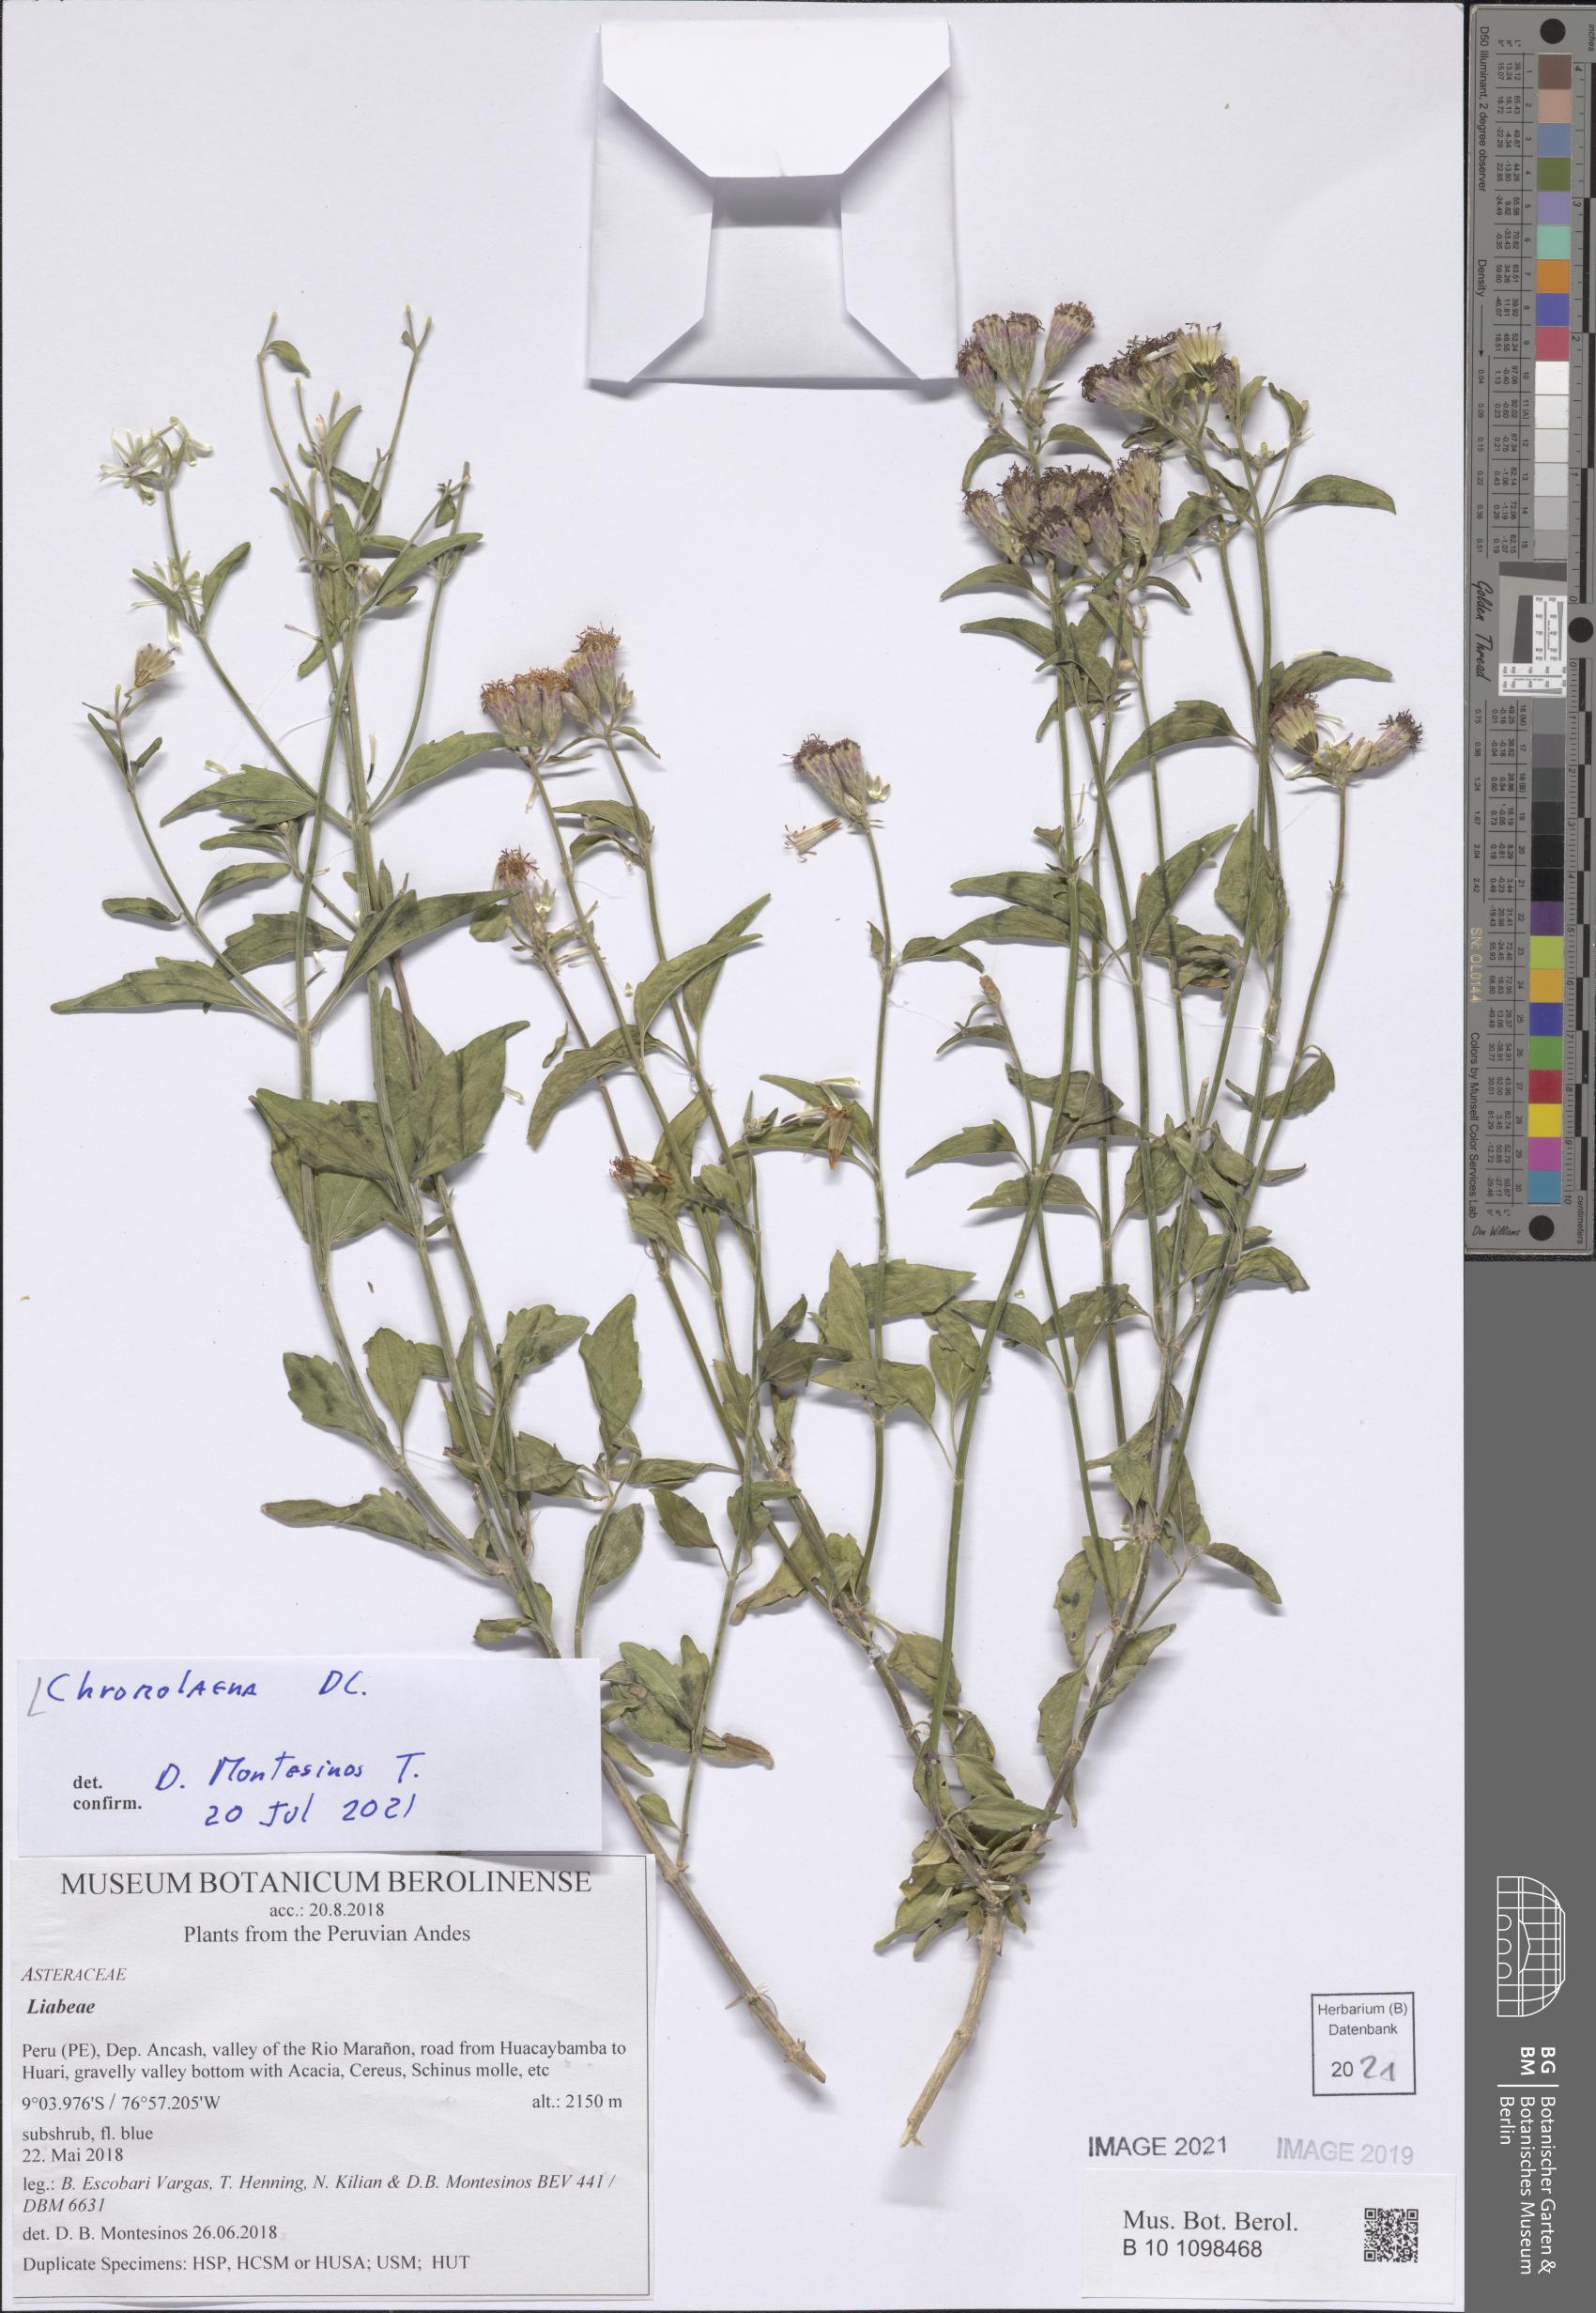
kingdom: Plantae
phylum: Tracheophyta
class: Magnoliopsida
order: Asterales
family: Asteraceae
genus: Chromolaena
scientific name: Chromolaena
